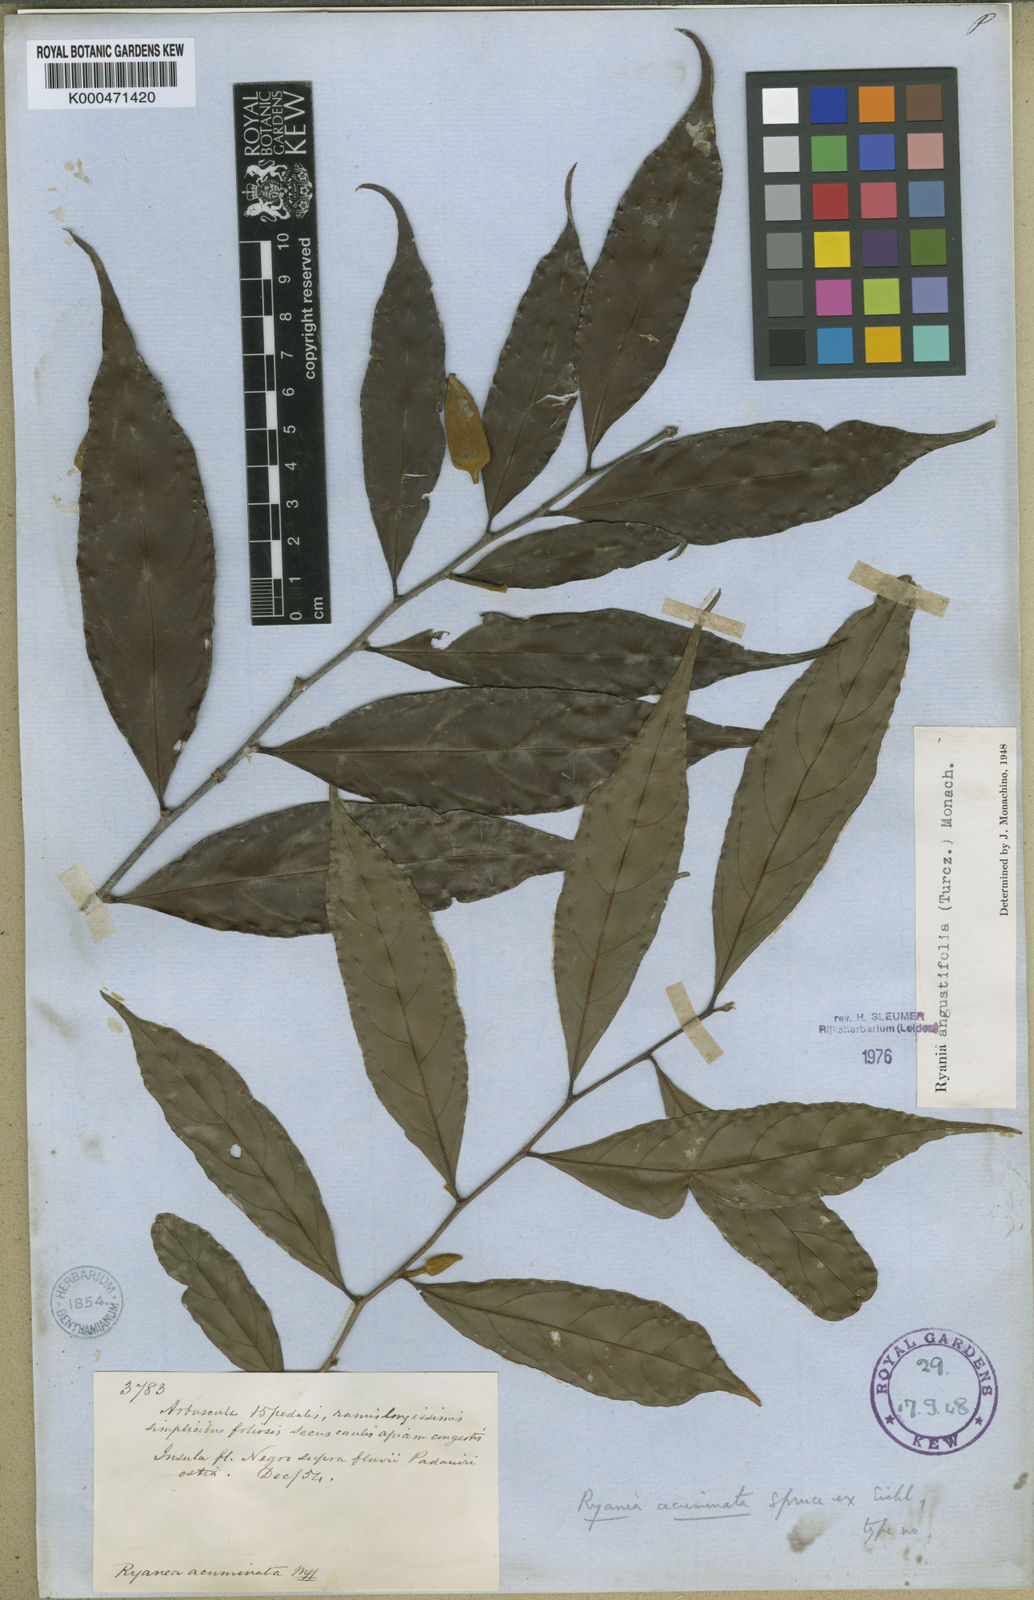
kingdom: Plantae
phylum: Tracheophyta
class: Magnoliopsida
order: Malpighiales
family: Salicaceae
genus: Ryania
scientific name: Ryania angustifolia
